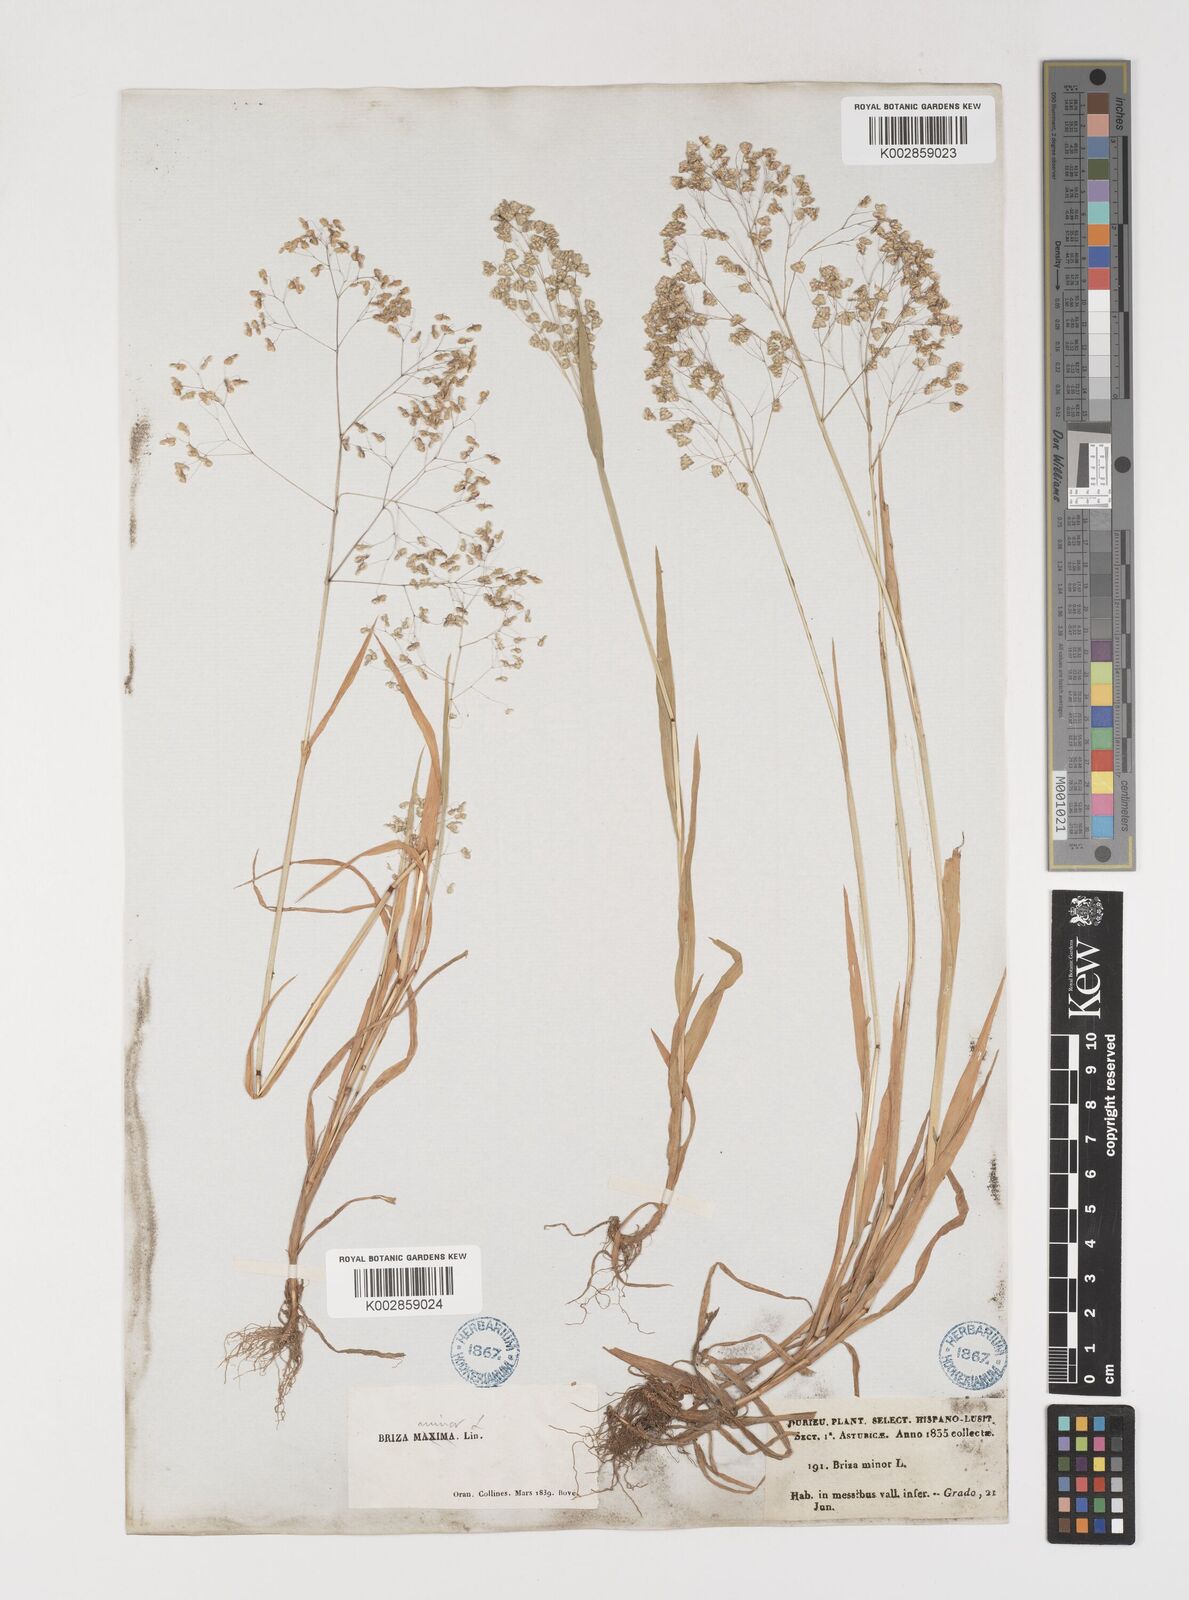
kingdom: Plantae
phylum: Tracheophyta
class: Liliopsida
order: Poales
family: Poaceae
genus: Briza
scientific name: Briza minor
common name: Lesser quaking-grass
